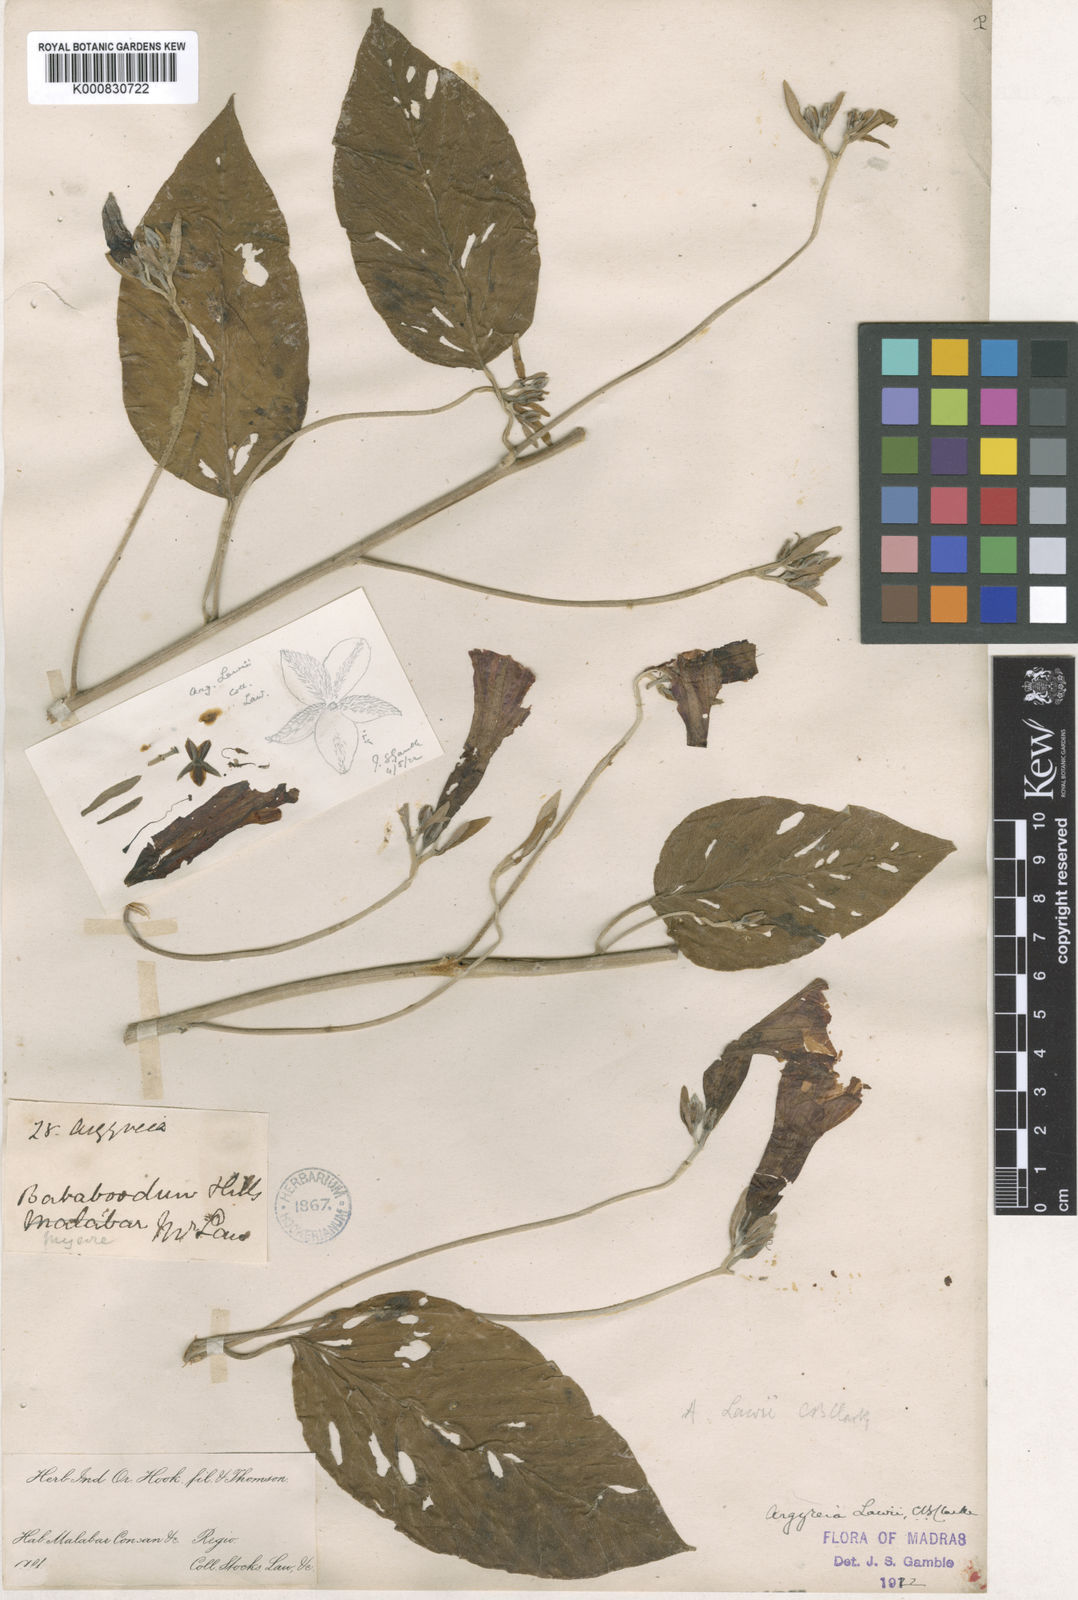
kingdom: Plantae
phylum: Tracheophyta
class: Magnoliopsida
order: Solanales
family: Convolvulaceae
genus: Argyreia
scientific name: Argyreia lawii
